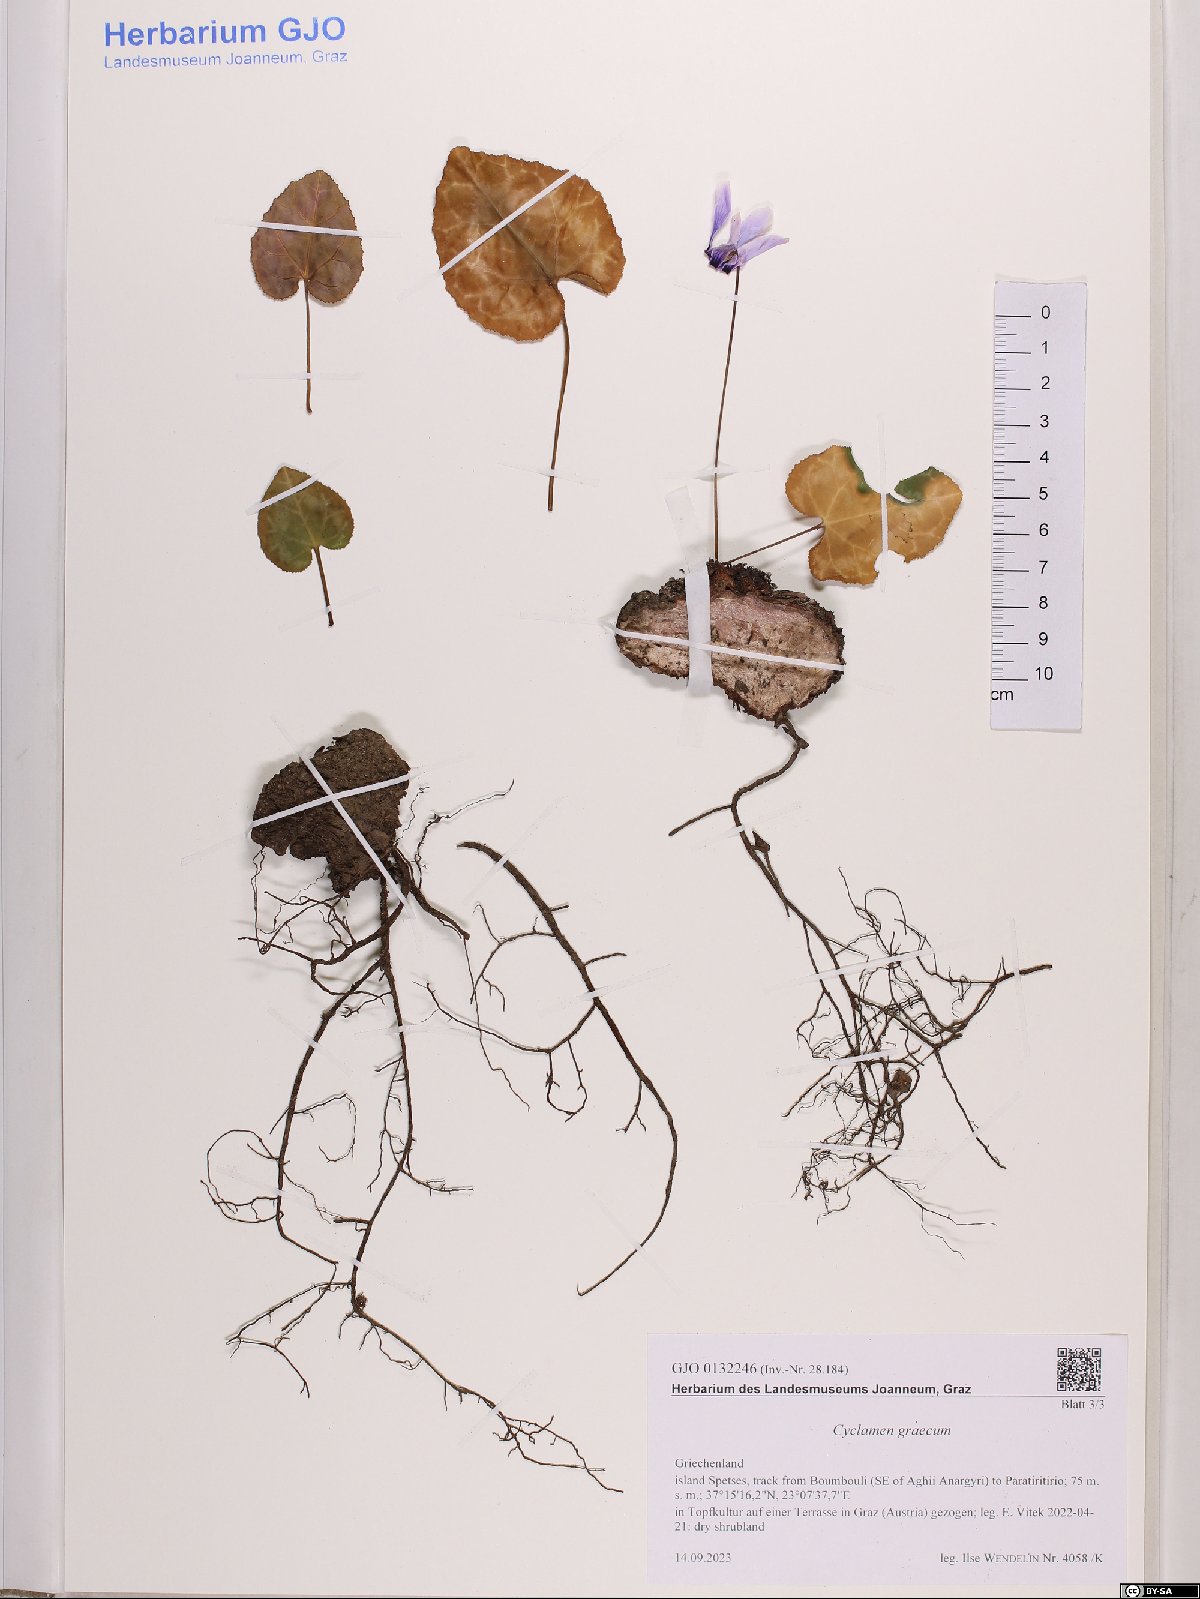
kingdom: Plantae
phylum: Tracheophyta
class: Magnoliopsida
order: Ericales
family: Primulaceae
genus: Cyclamen
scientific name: Cyclamen graecum
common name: Greek cyclamen
